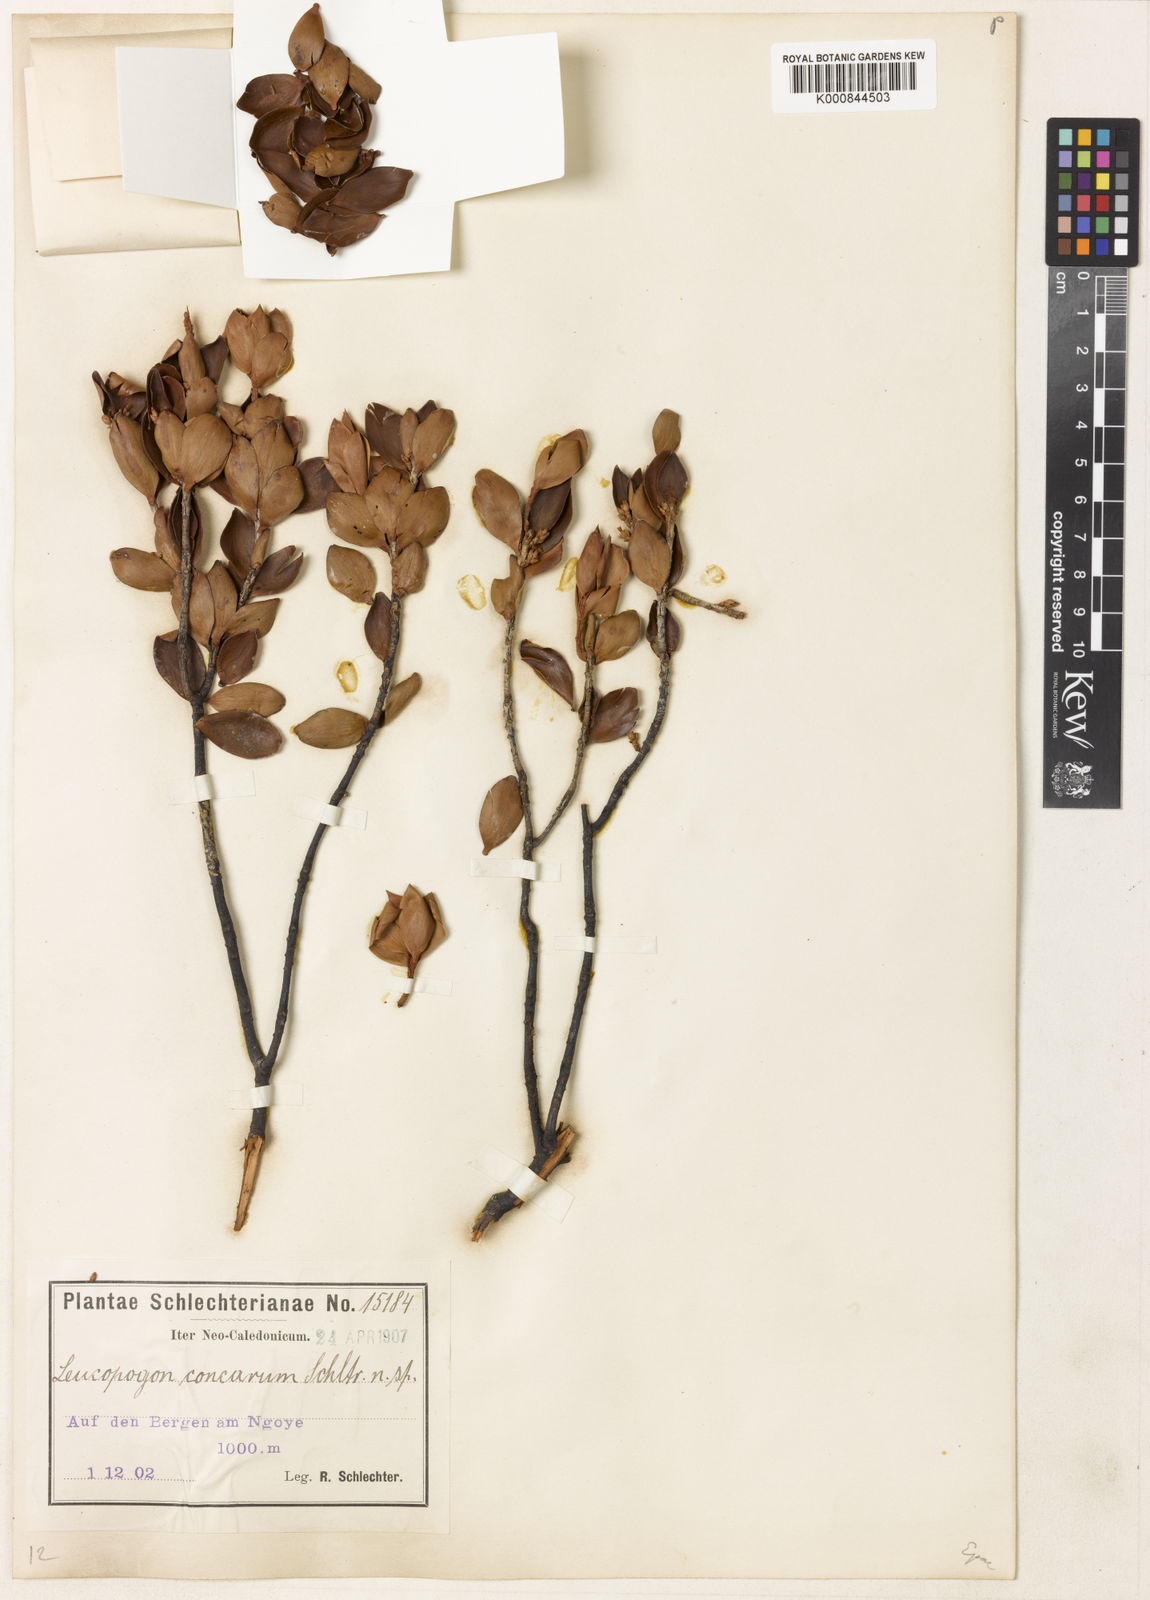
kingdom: Plantae
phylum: Tracheophyta
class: Magnoliopsida
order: Ericales
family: Ericaceae
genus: Styphelia
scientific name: Styphelia cymbulae
